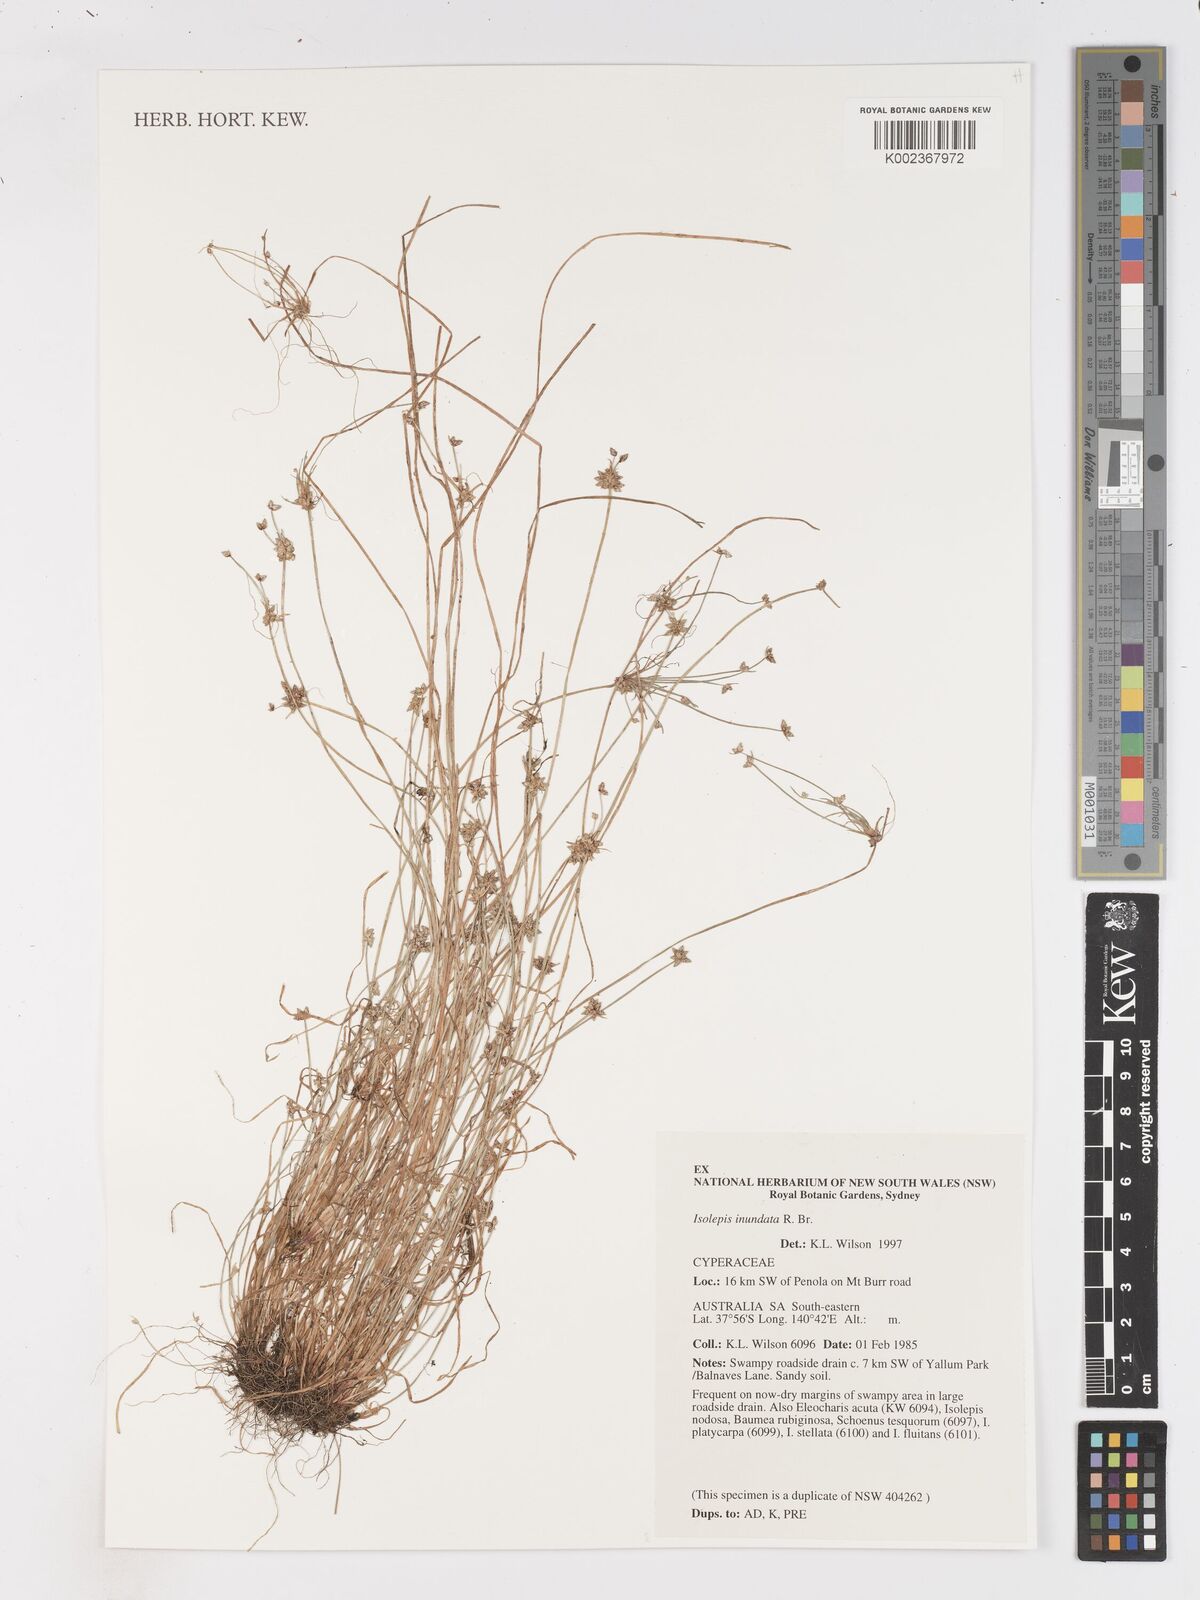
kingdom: Plantae
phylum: Tracheophyta
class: Liliopsida
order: Poales
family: Cyperaceae
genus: Isolepis
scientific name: Isolepis inundata
